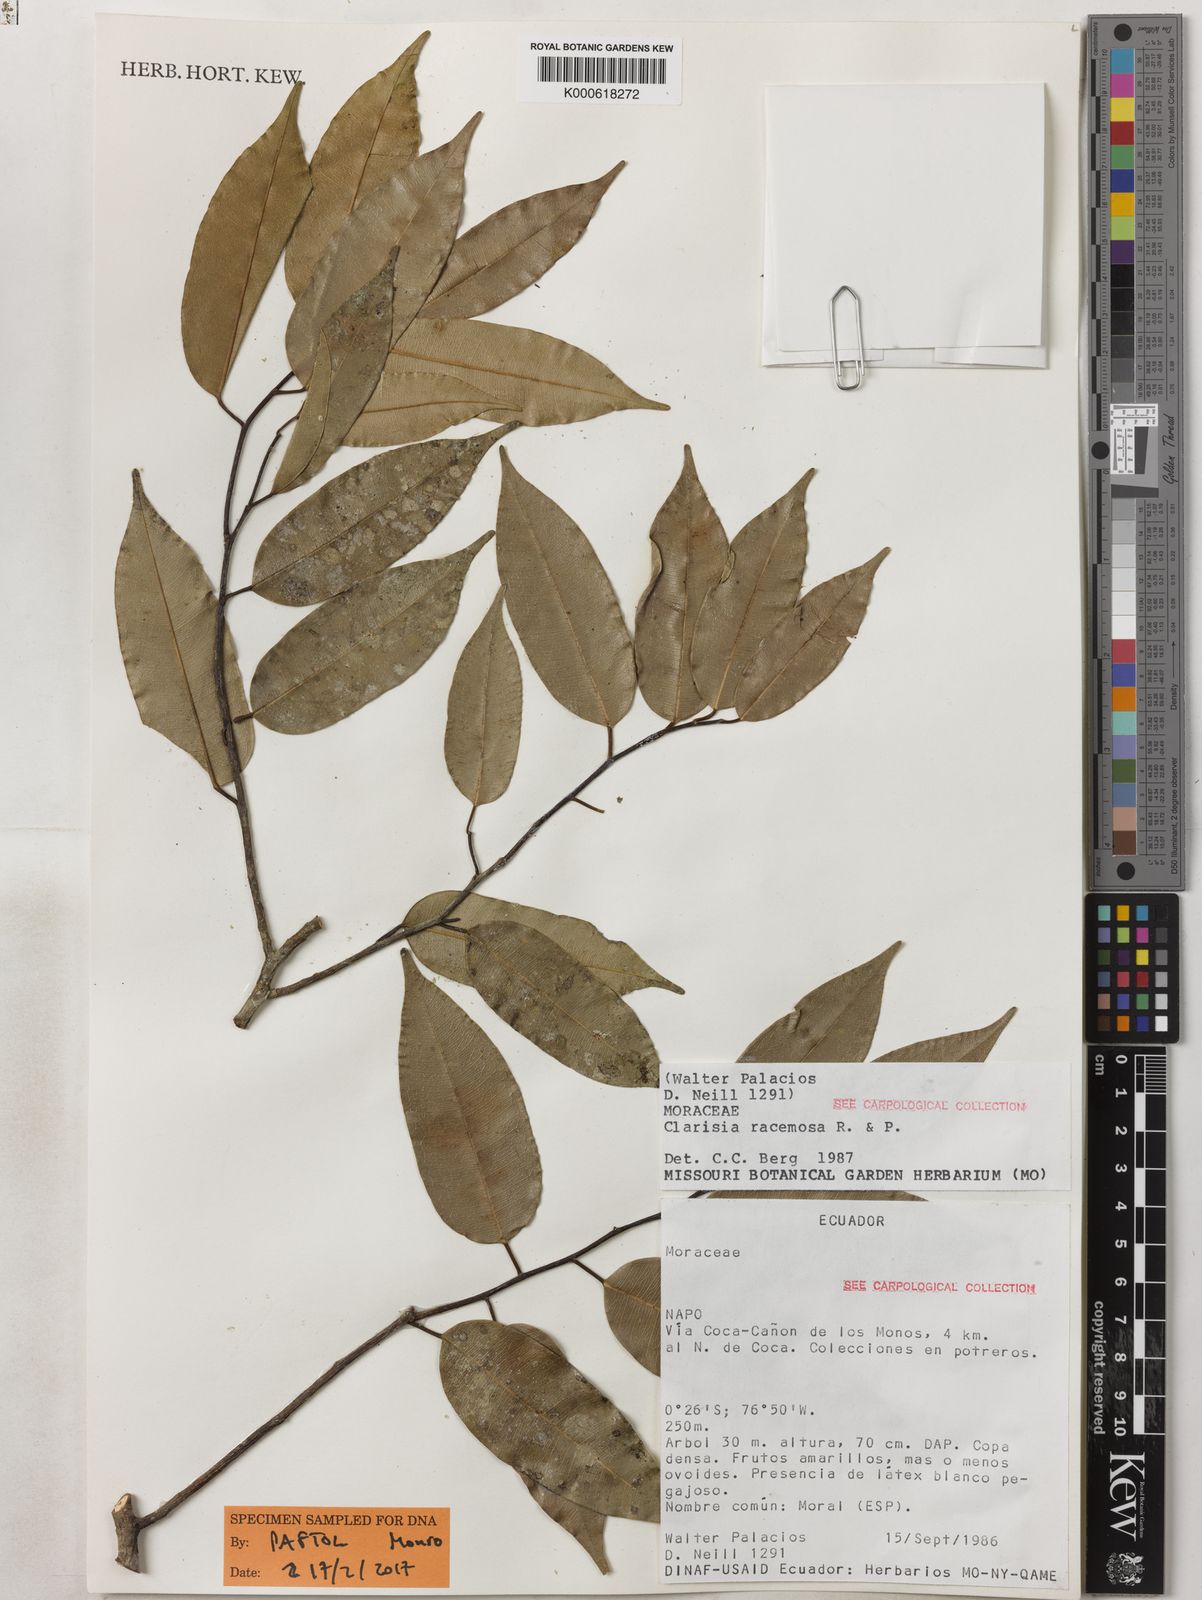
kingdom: Plantae
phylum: Tracheophyta
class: Magnoliopsida
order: Rosales
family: Moraceae
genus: Clarisia
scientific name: Clarisia racemosa
